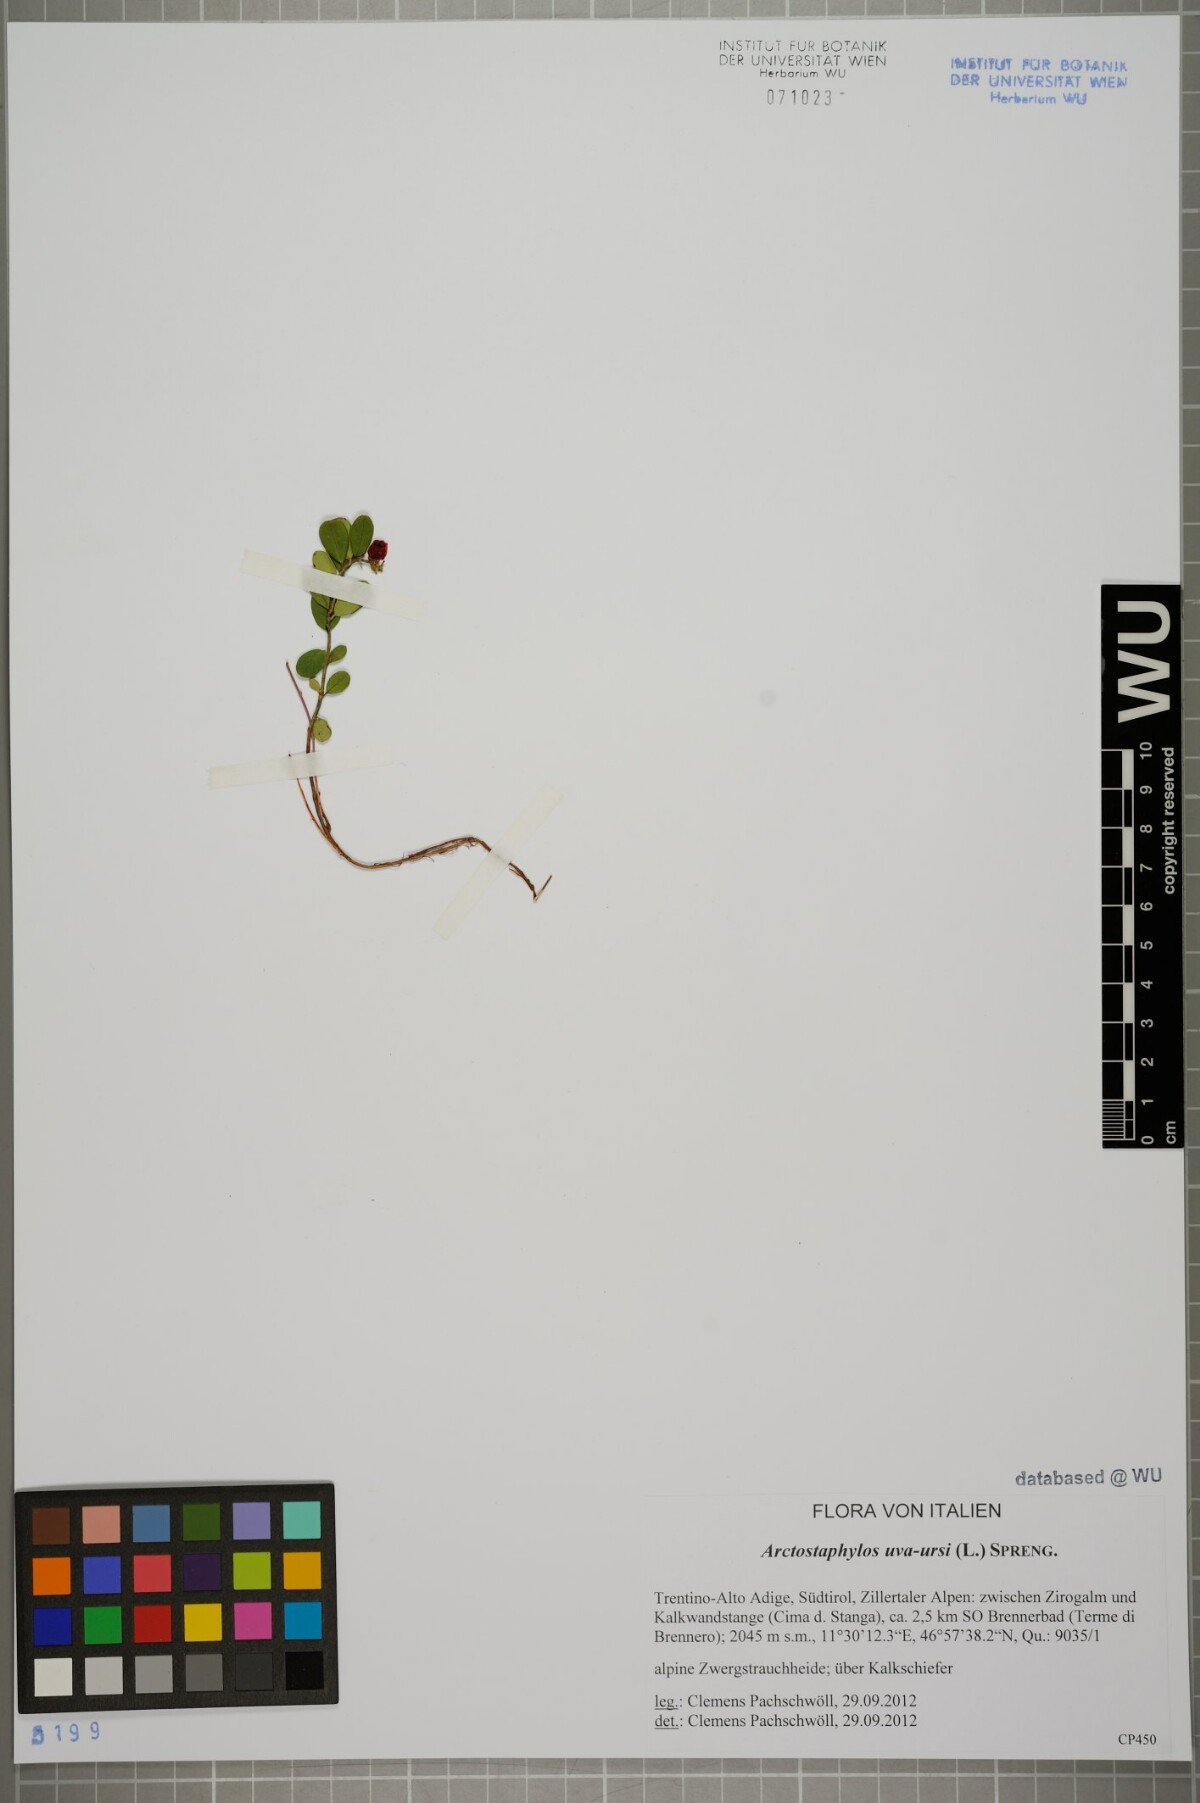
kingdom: Plantae
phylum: Tracheophyta
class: Magnoliopsida
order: Ericales
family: Ericaceae
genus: Arctostaphylos
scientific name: Arctostaphylos uva-ursi
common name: Bearberry
